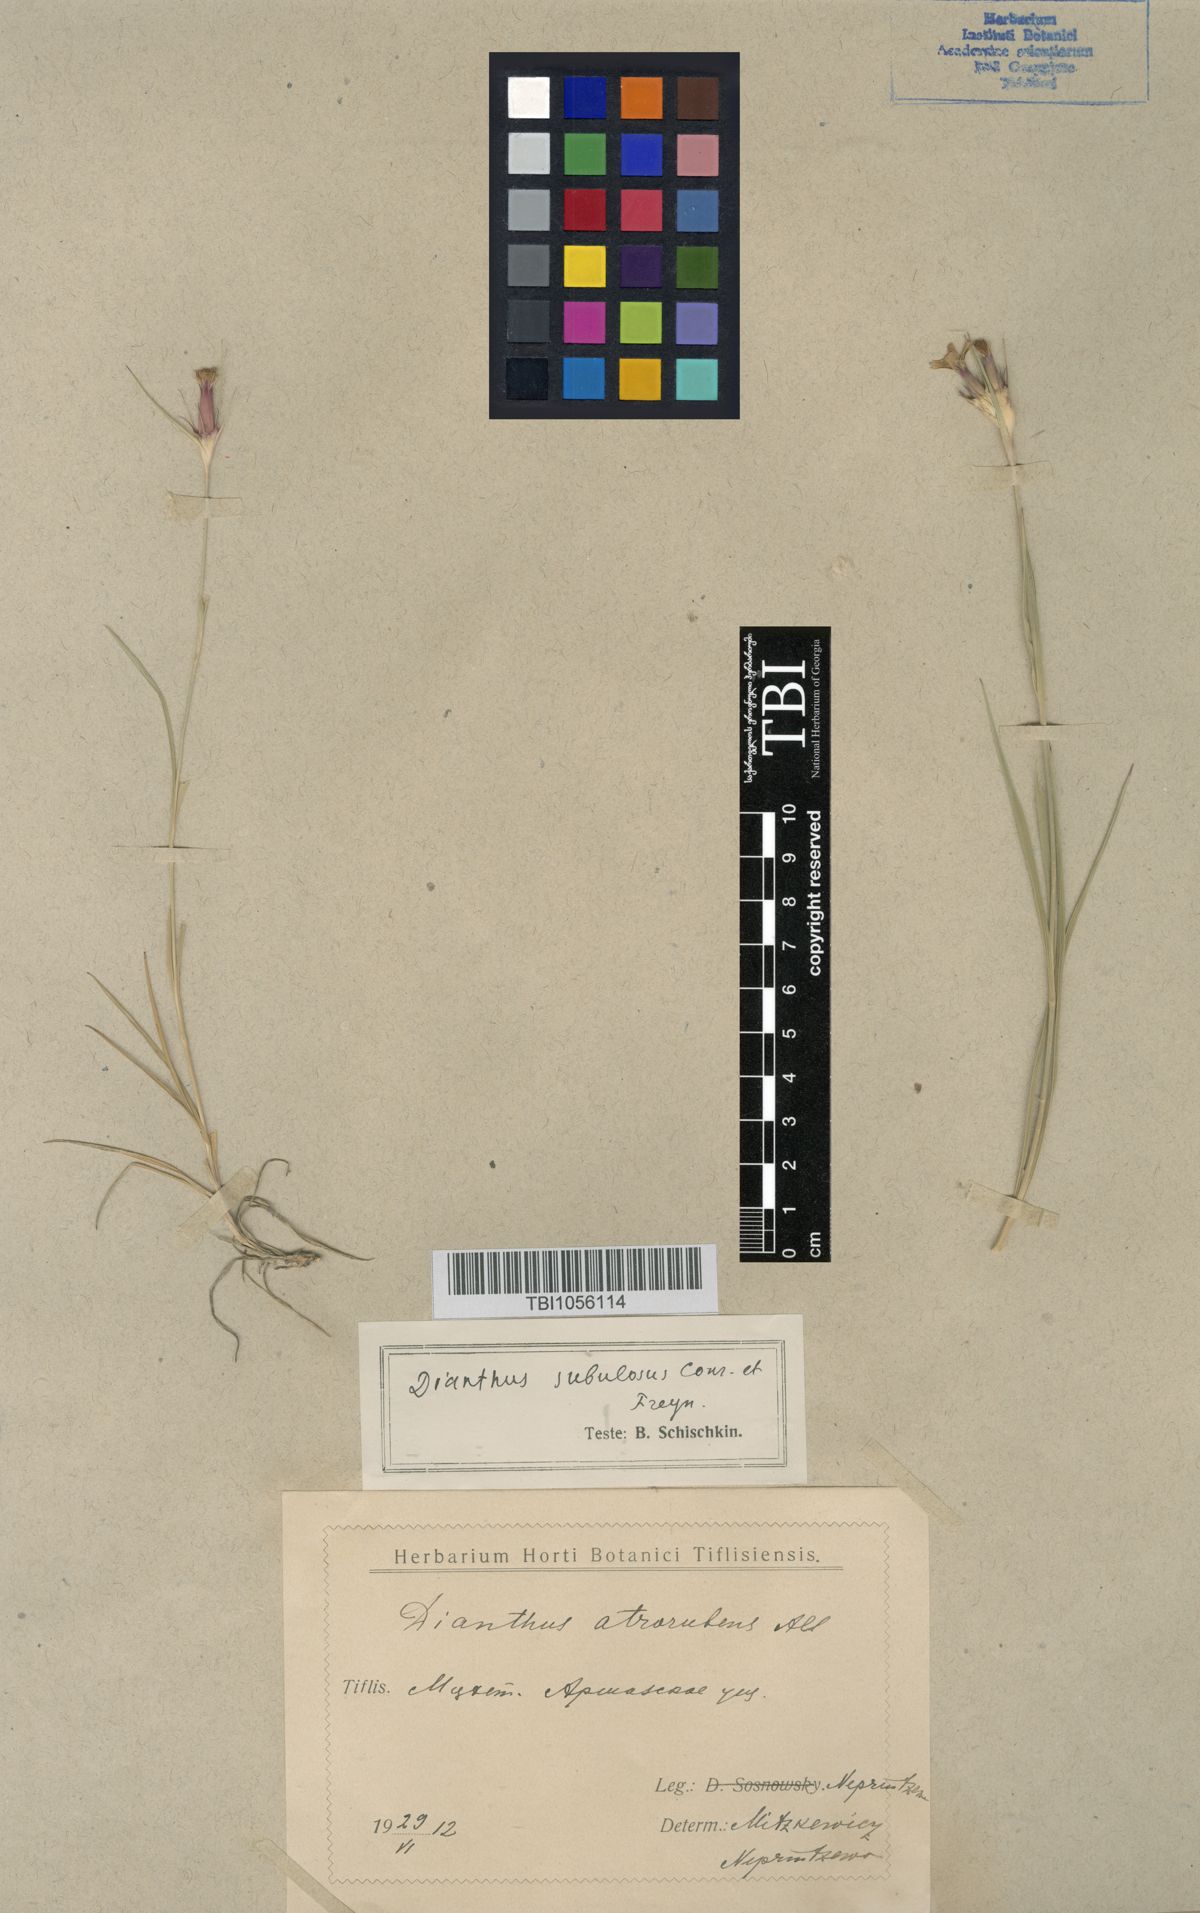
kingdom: Plantae
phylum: Tracheophyta
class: Magnoliopsida
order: Caryophyllales
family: Caryophyllaceae
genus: Dianthus
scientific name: Dianthus subulosus
